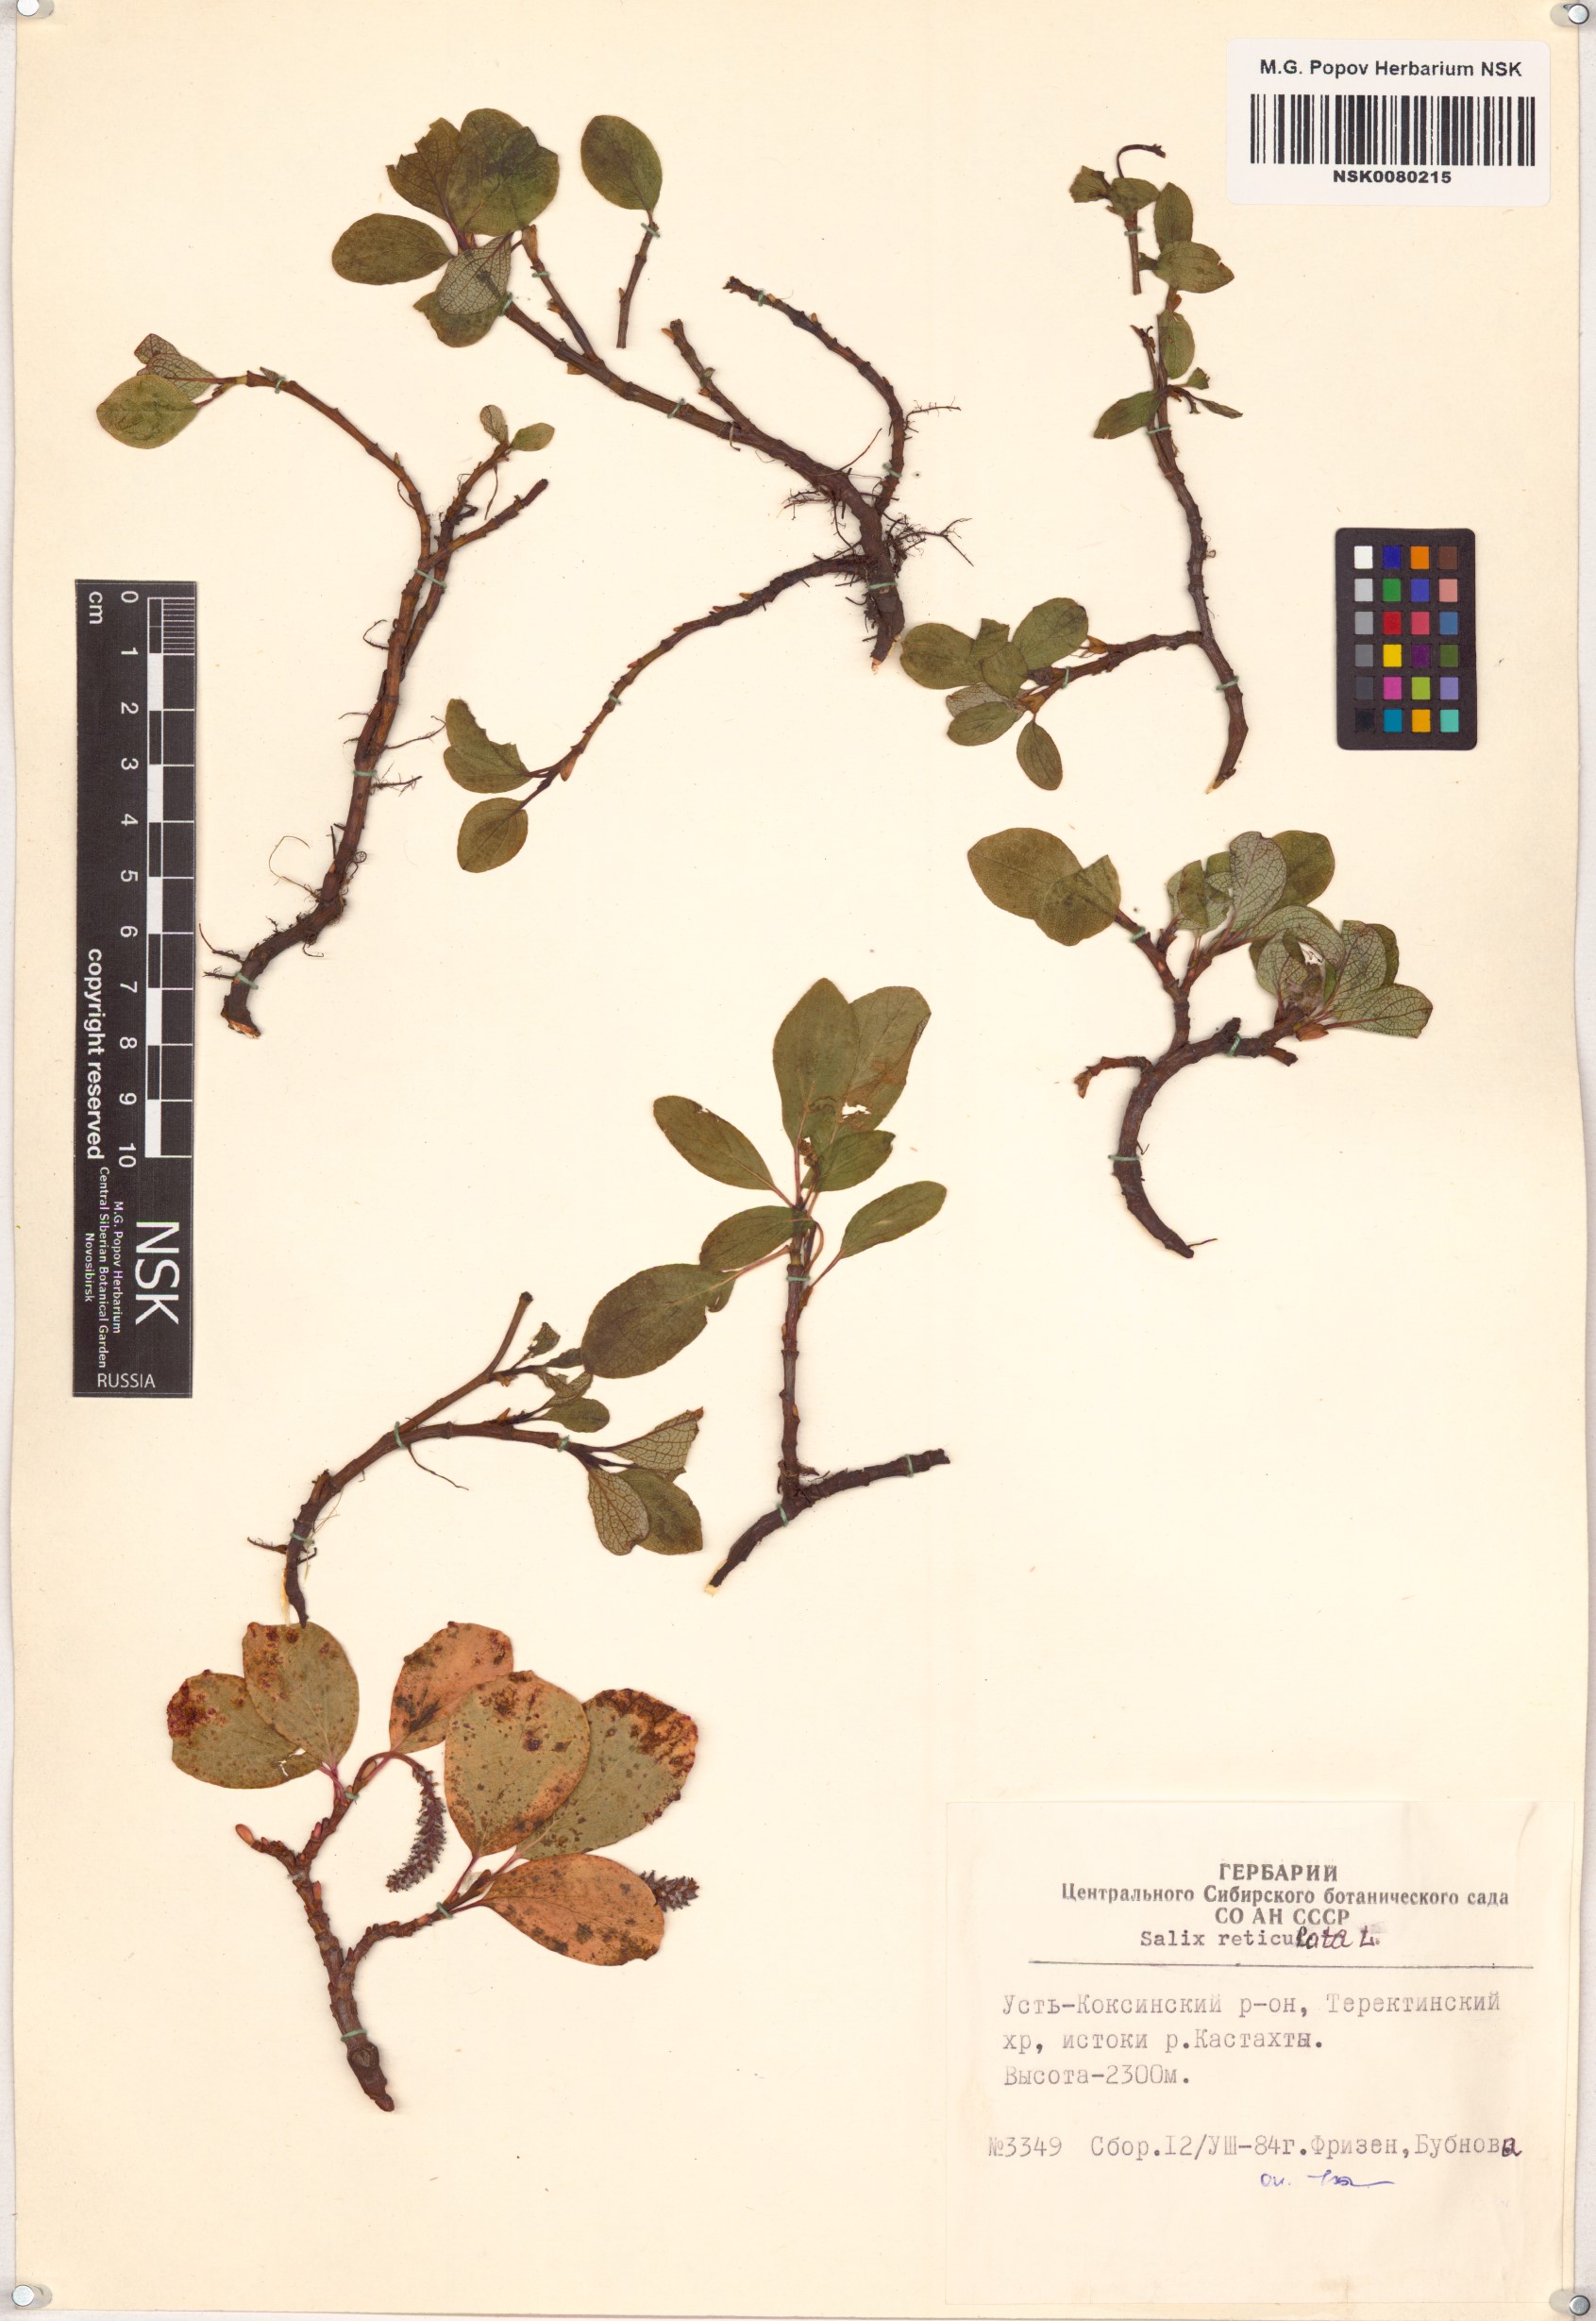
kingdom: Plantae
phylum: Tracheophyta
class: Magnoliopsida
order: Malpighiales
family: Salicaceae
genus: Salix
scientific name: Salix reticulata
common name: Net-leaved willow
